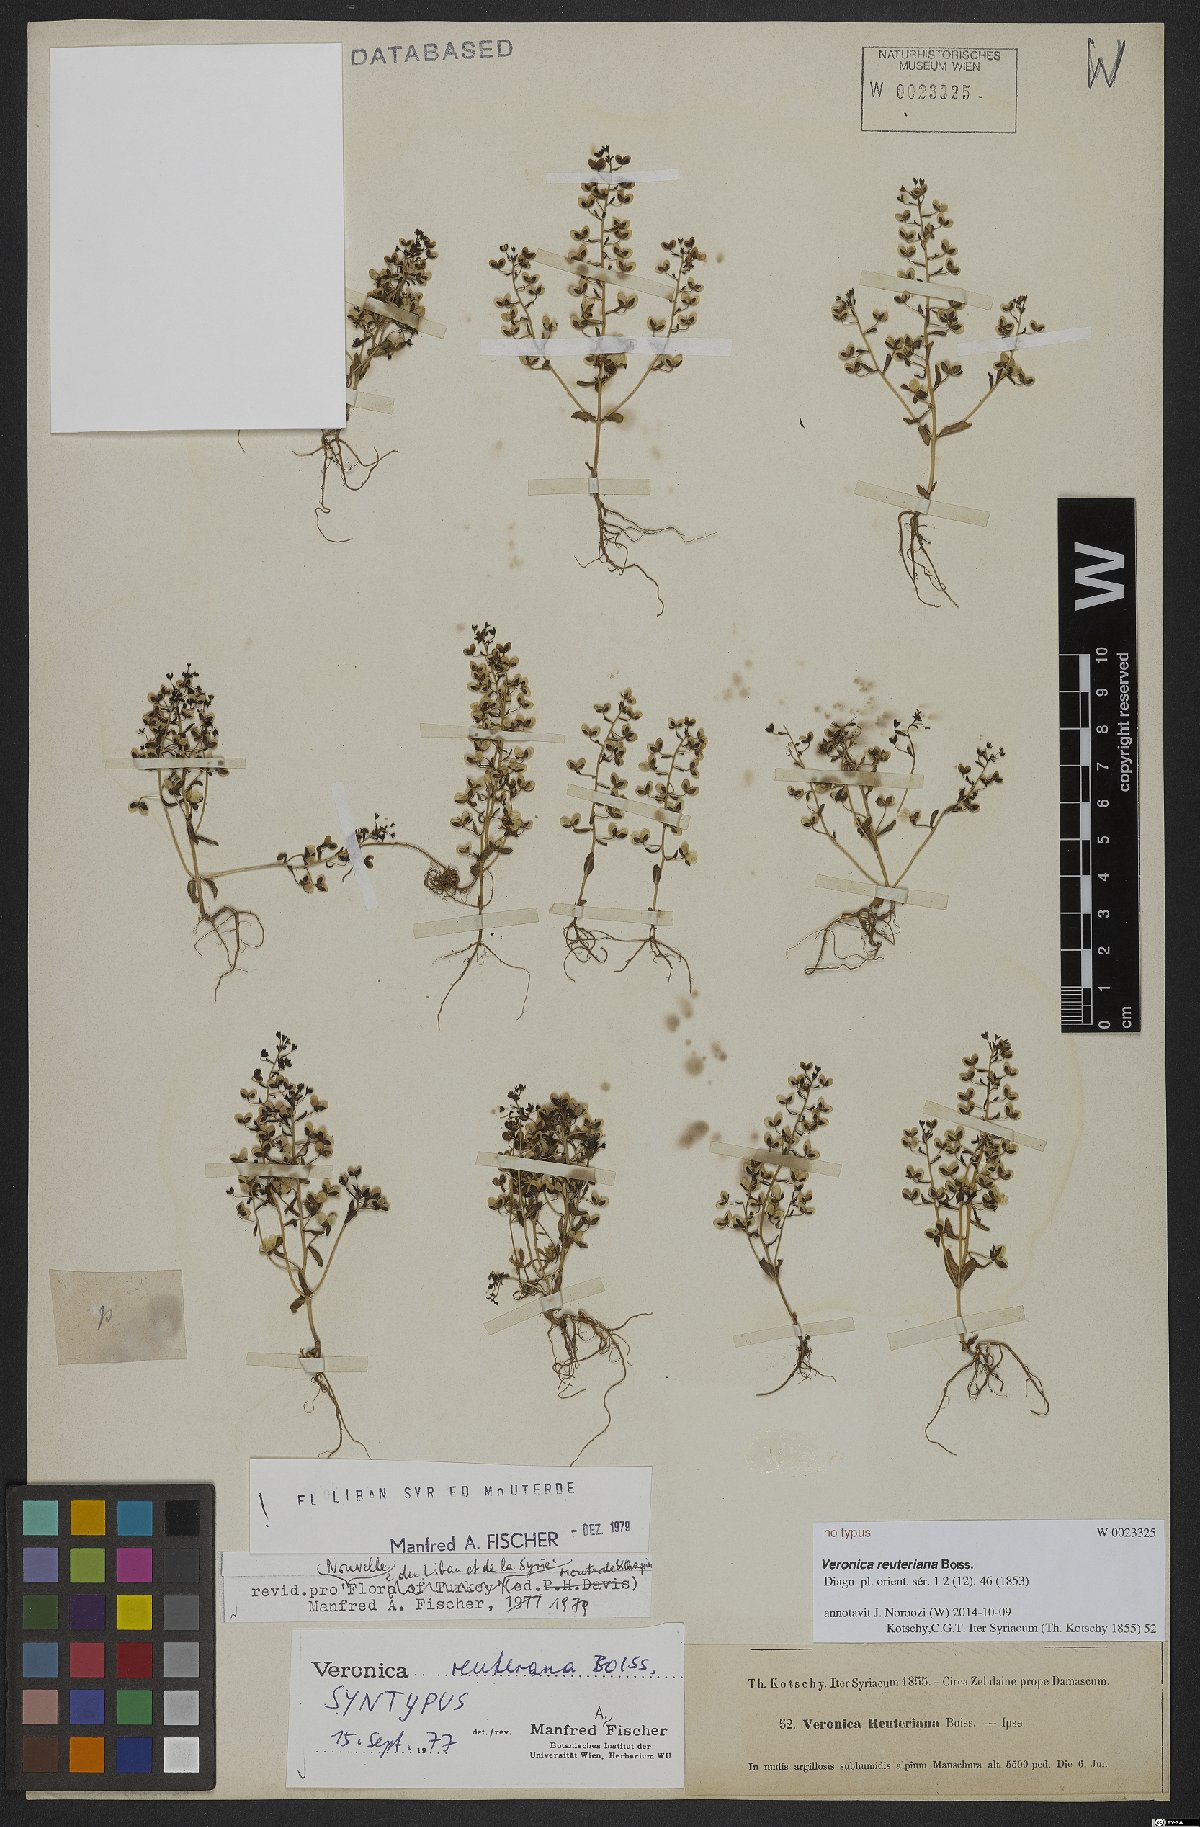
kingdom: Plantae
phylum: Tracheophyta
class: Magnoliopsida
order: Lamiales
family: Plantaginaceae
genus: Veronica
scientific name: Veronica reuteriana
